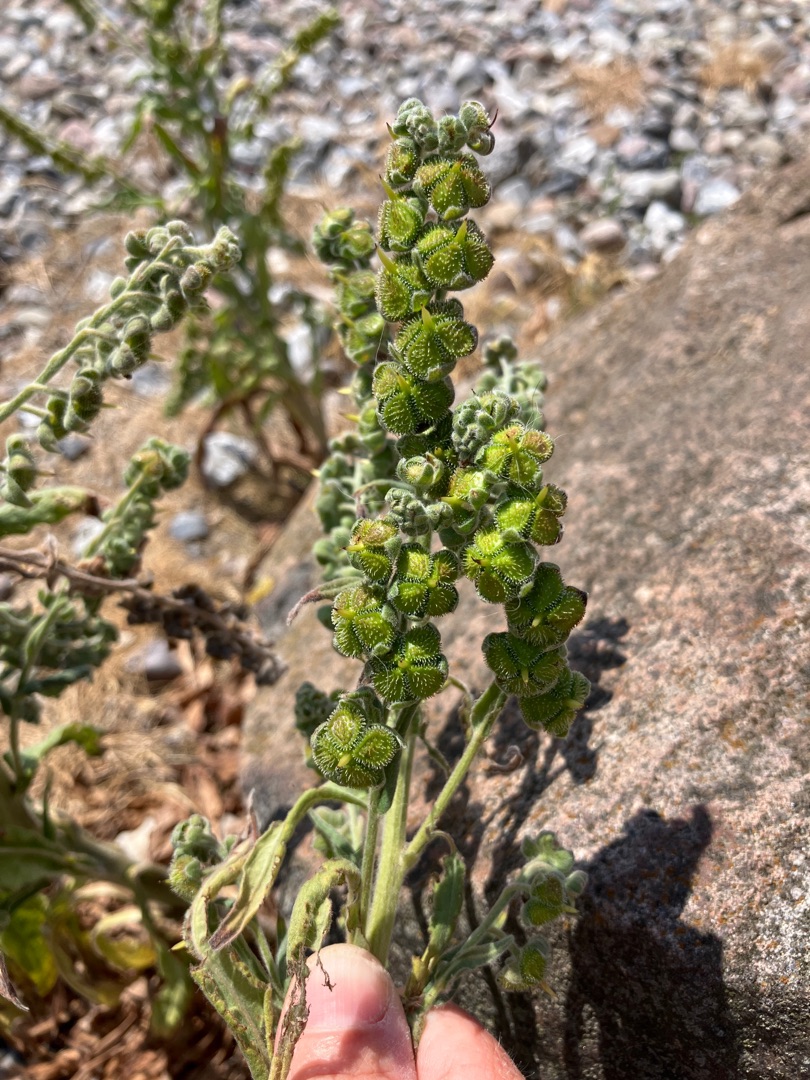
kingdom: Plantae
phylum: Tracheophyta
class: Magnoliopsida
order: Boraginales
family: Boraginaceae
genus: Cynoglossum
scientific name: Cynoglossum officinale
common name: Hundetunge
